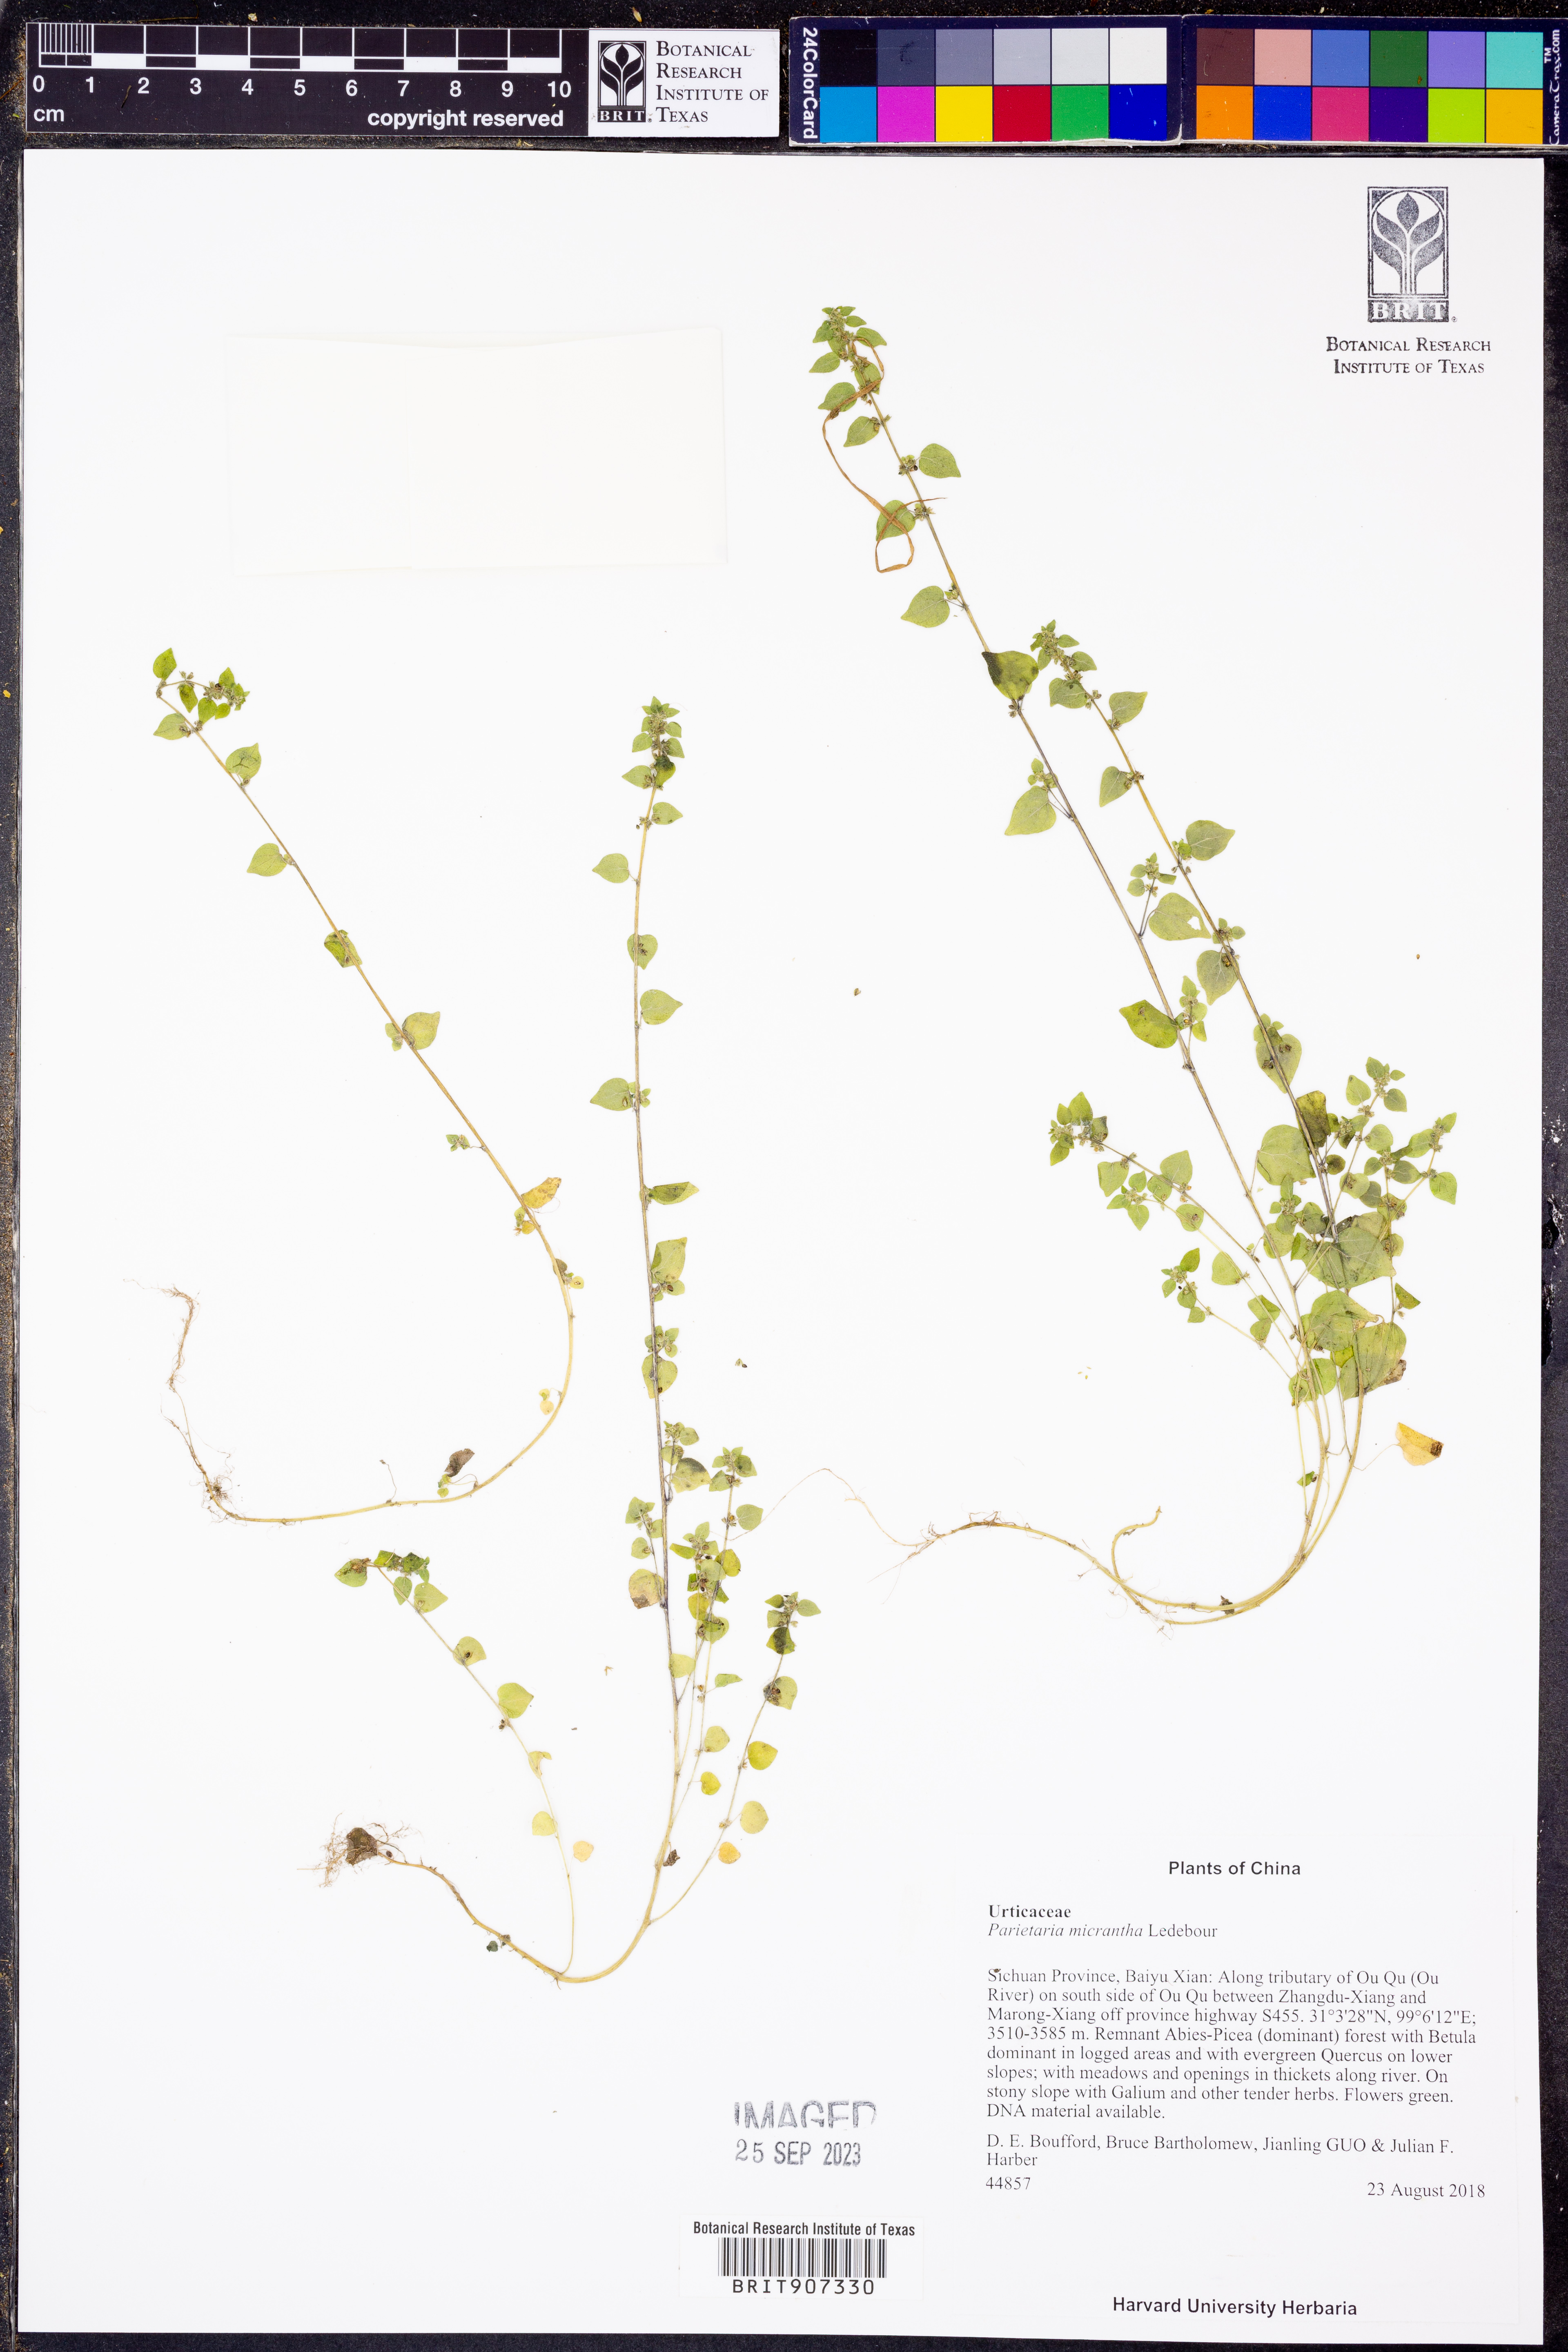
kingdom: Plantae
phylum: Tracheophyta
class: Magnoliopsida
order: Rosales
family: Urticaceae
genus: Parietaria
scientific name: Parietaria micrantha
